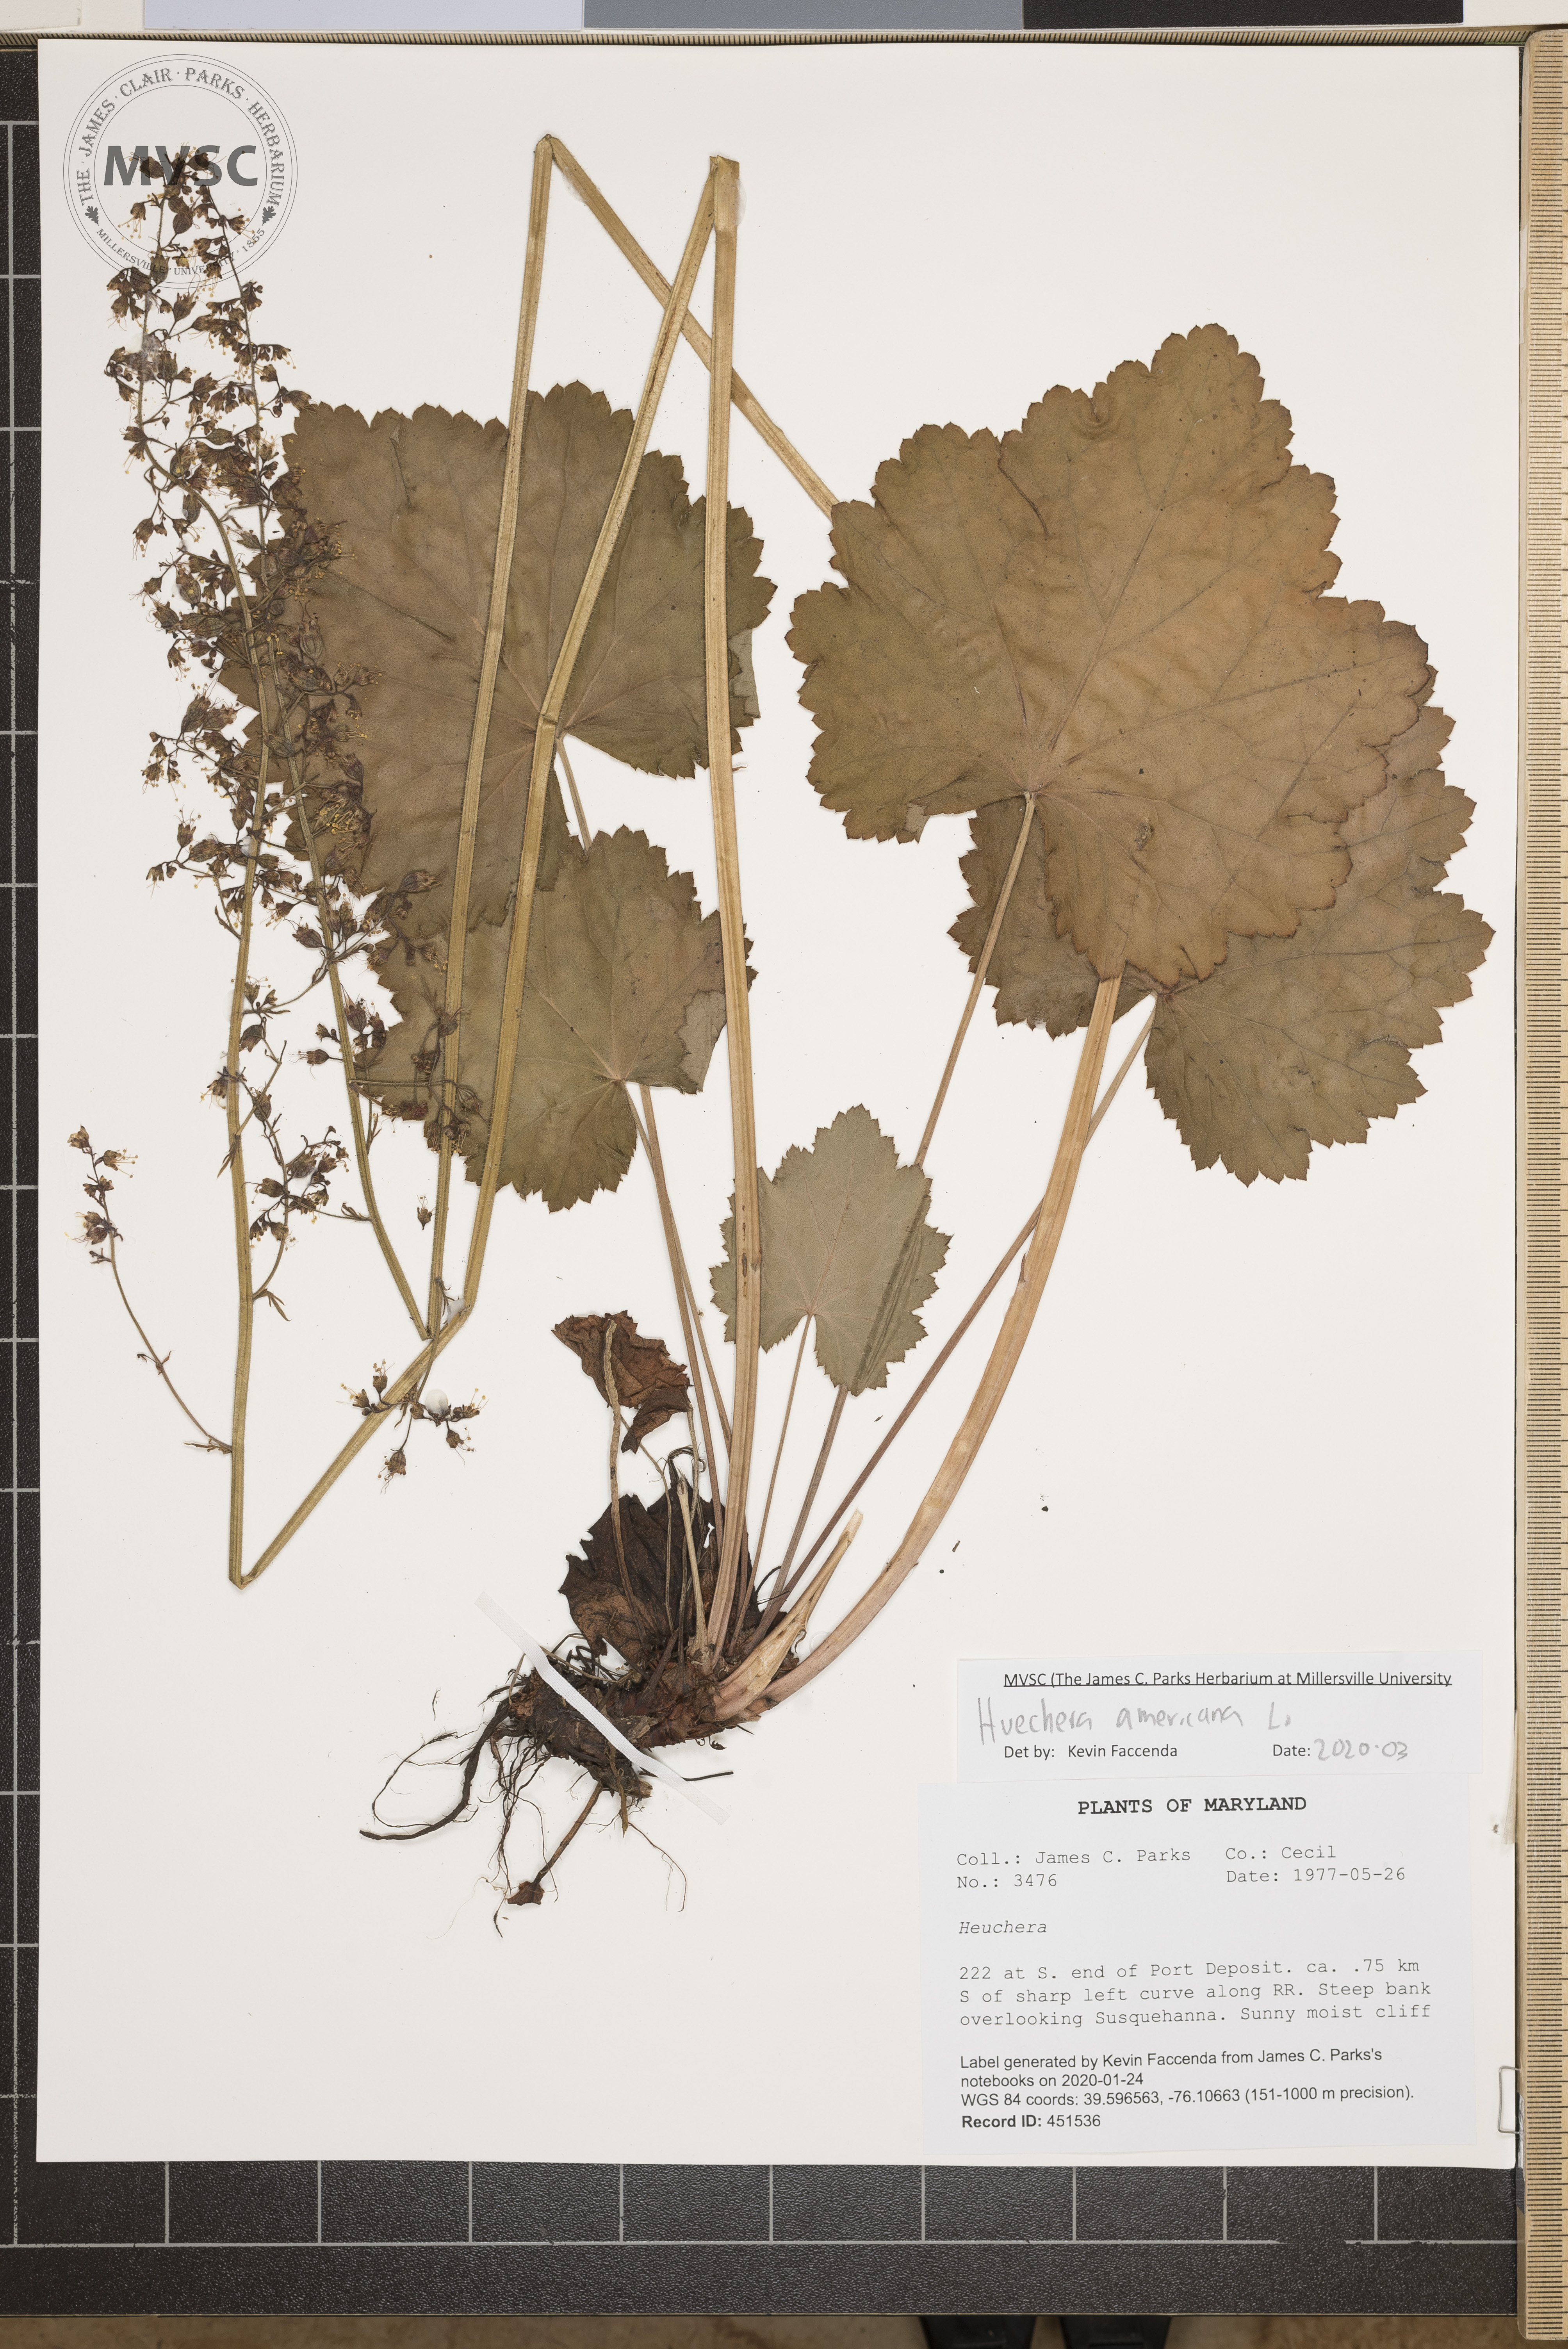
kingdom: Plantae
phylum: Tracheophyta
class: Magnoliopsida
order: Saxifragales
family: Saxifragaceae
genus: Heuchera
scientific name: Heuchera americana
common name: Alumroot
